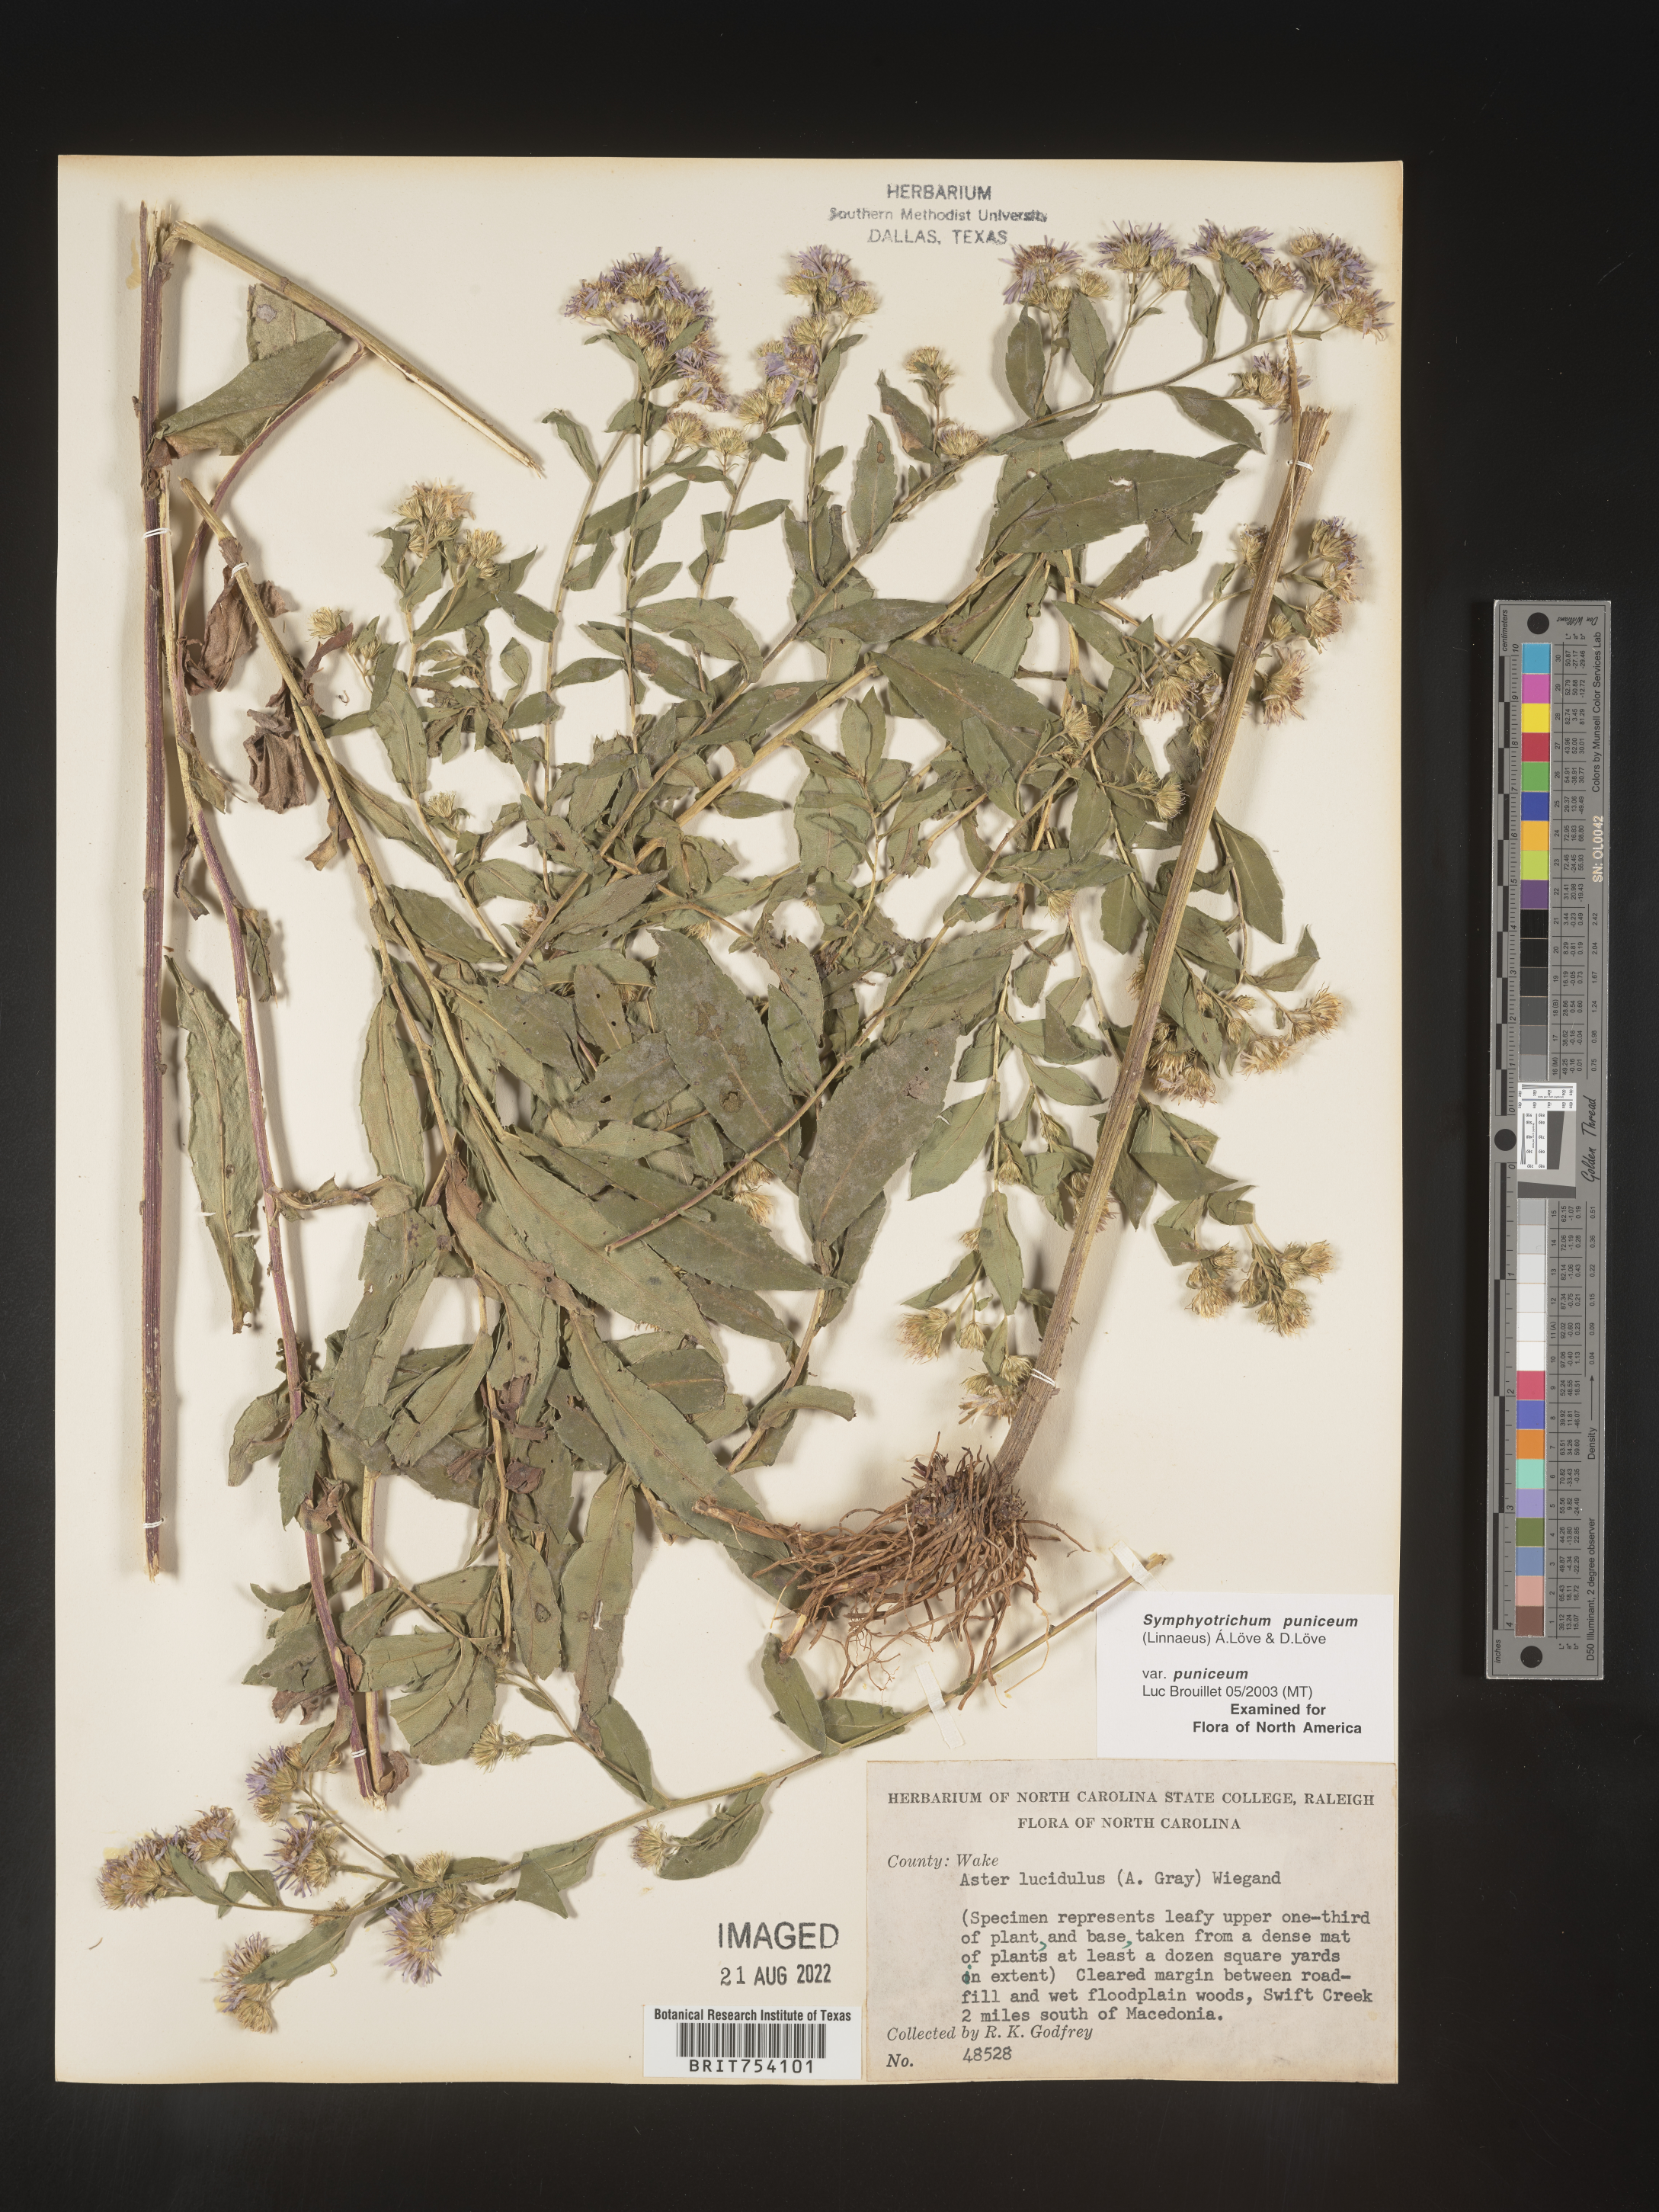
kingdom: Plantae
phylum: Tracheophyta
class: Magnoliopsida
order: Asterales
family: Asteraceae
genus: Symphyotrichum
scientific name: Symphyotrichum puniceum
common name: Bog aster
